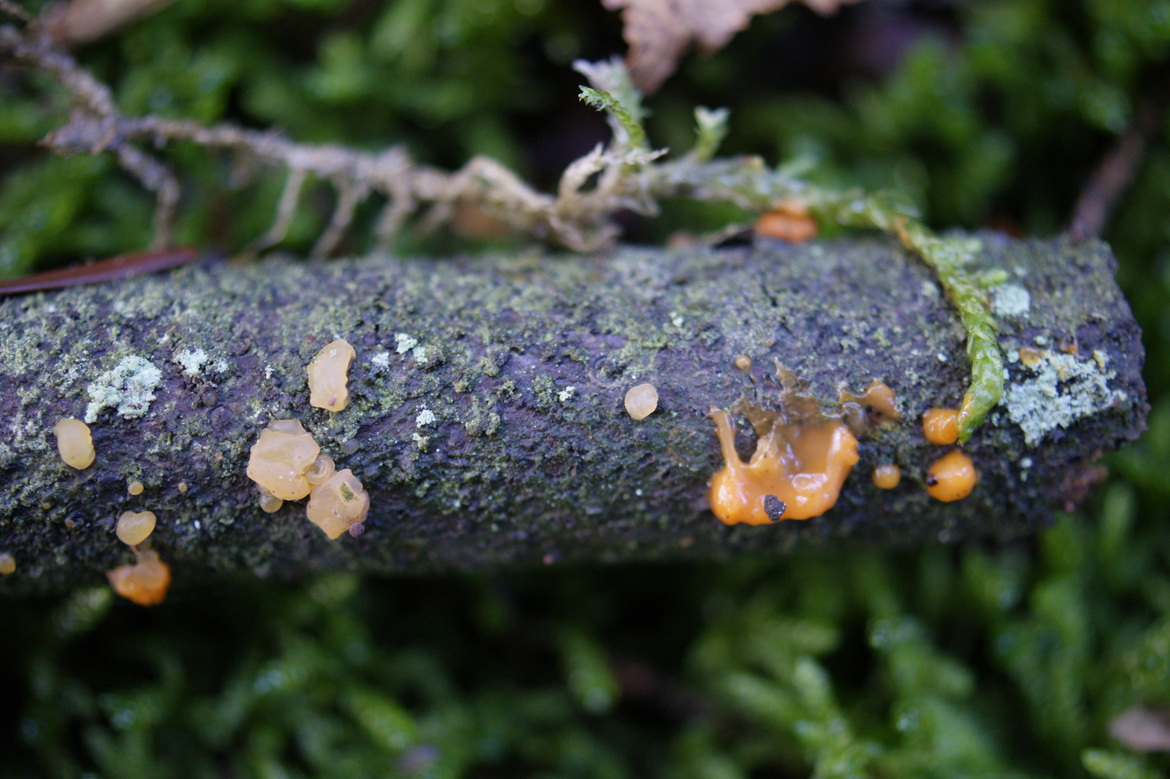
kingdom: Fungi
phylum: Basidiomycota
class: Dacrymycetes
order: Dacrymycetales
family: Dacrymycetaceae
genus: Dacrymyces
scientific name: Dacrymyces stillatus
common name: almindelig tåresvamp
